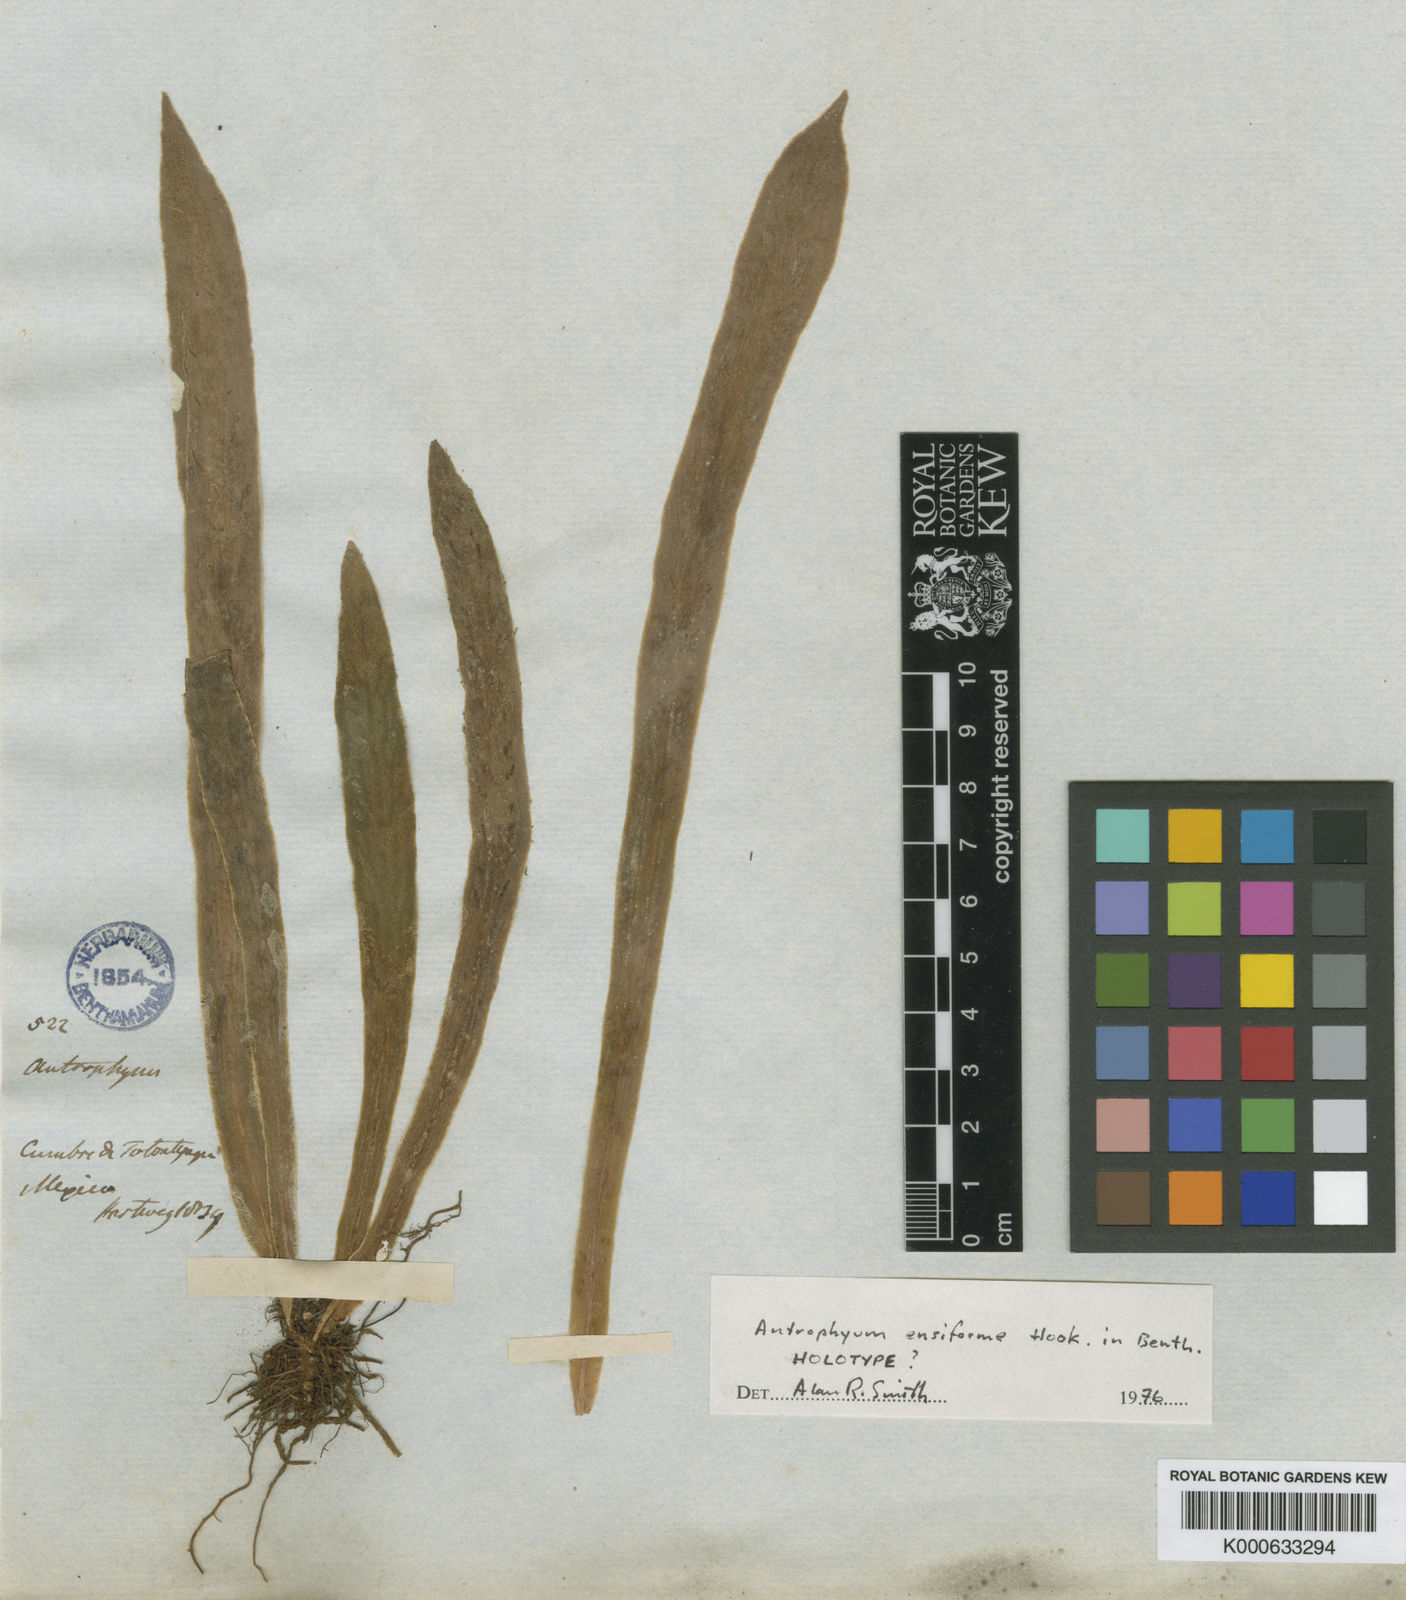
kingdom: Plantae
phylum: Tracheophyta
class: Polypodiopsida
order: Polypodiales
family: Pteridaceae
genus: Scoliosorus
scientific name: Scoliosorus ensiformis
